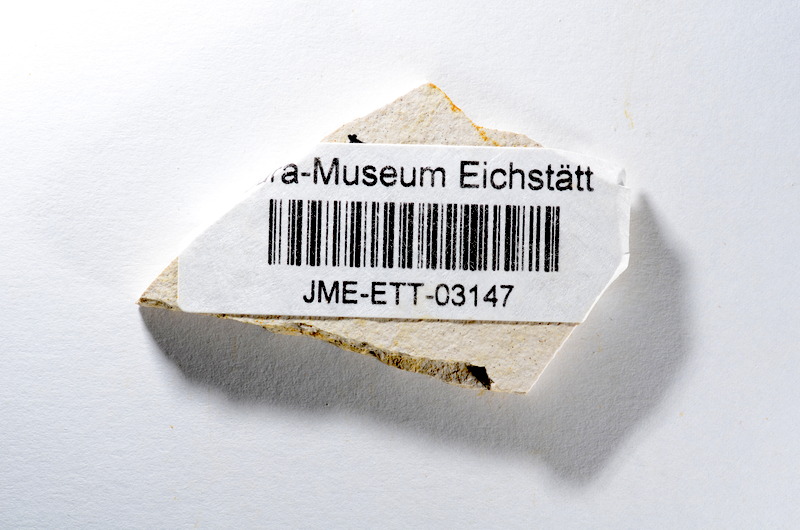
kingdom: Animalia
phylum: Chordata
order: Salmoniformes
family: Orthogonikleithridae
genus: Orthogonikleithrus
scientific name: Orthogonikleithrus hoelli
